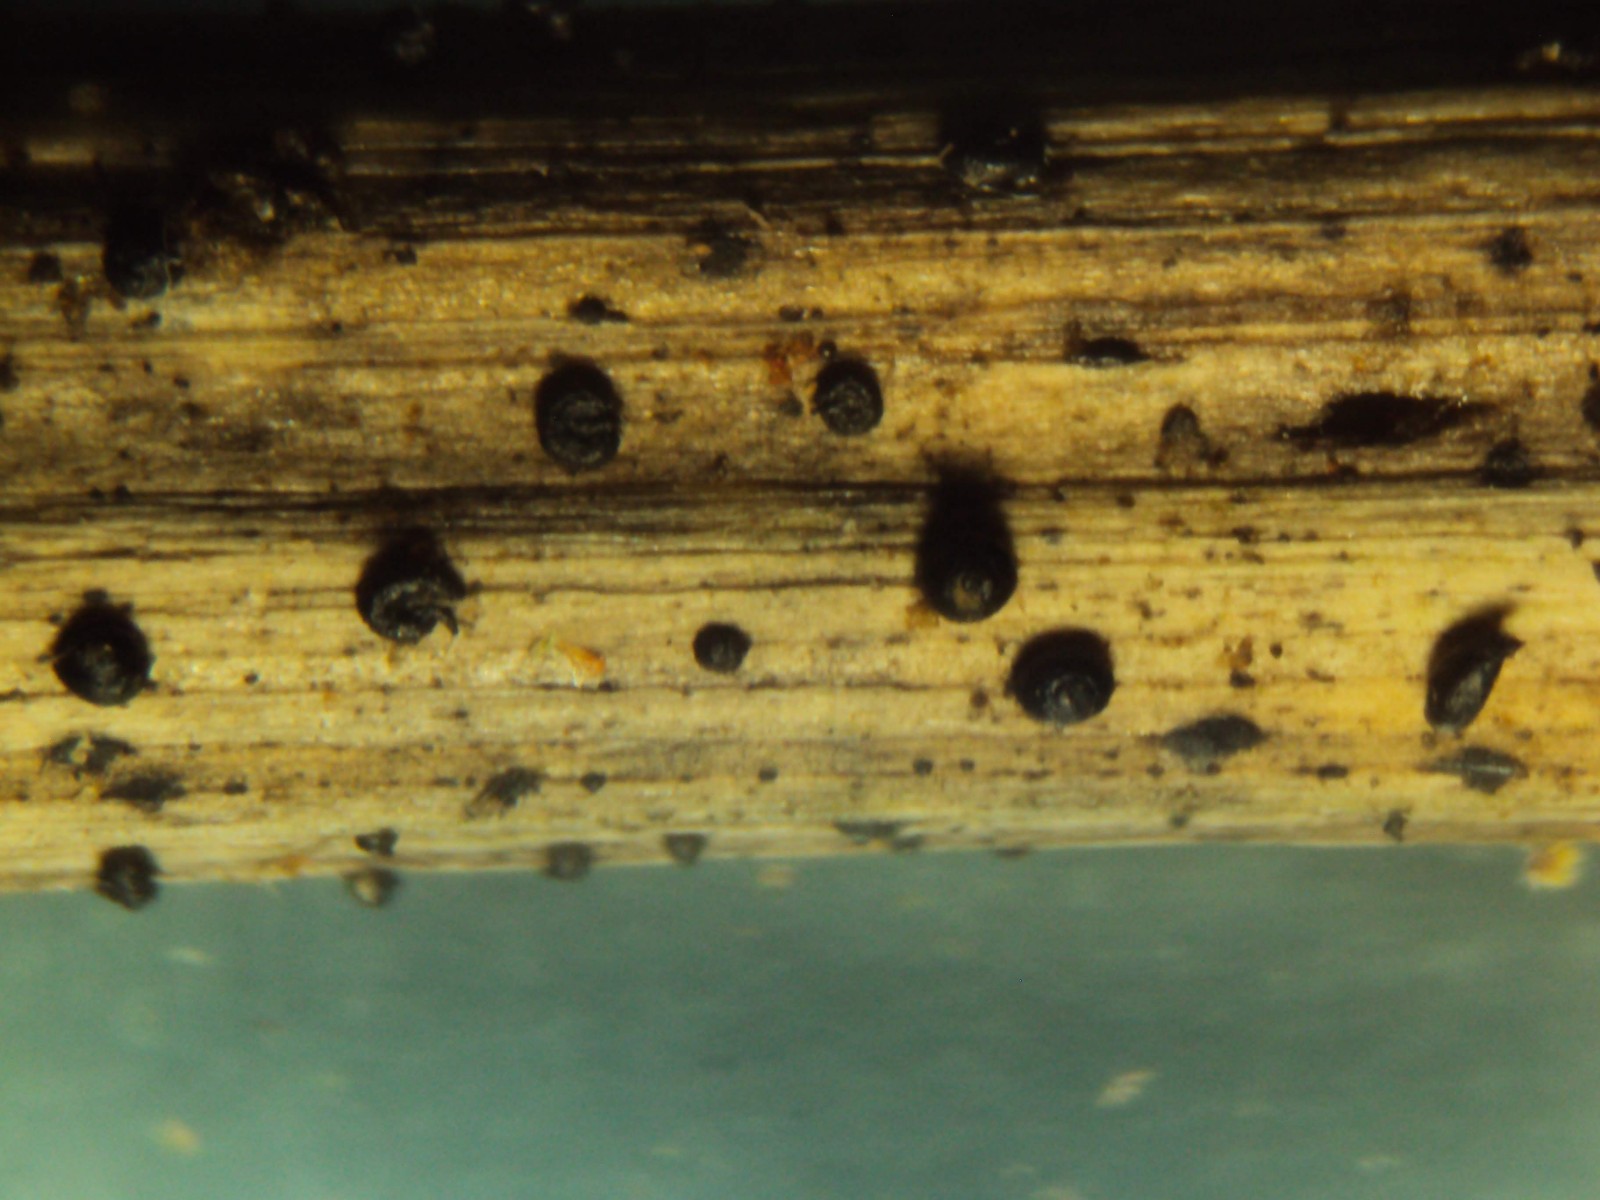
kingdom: Fungi
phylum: Ascomycota
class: Dothideomycetes
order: Pleosporales
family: Leptosphaeriaceae
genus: Leptosphaeria
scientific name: Leptosphaeria doliolum
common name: skærm-kulkegle
